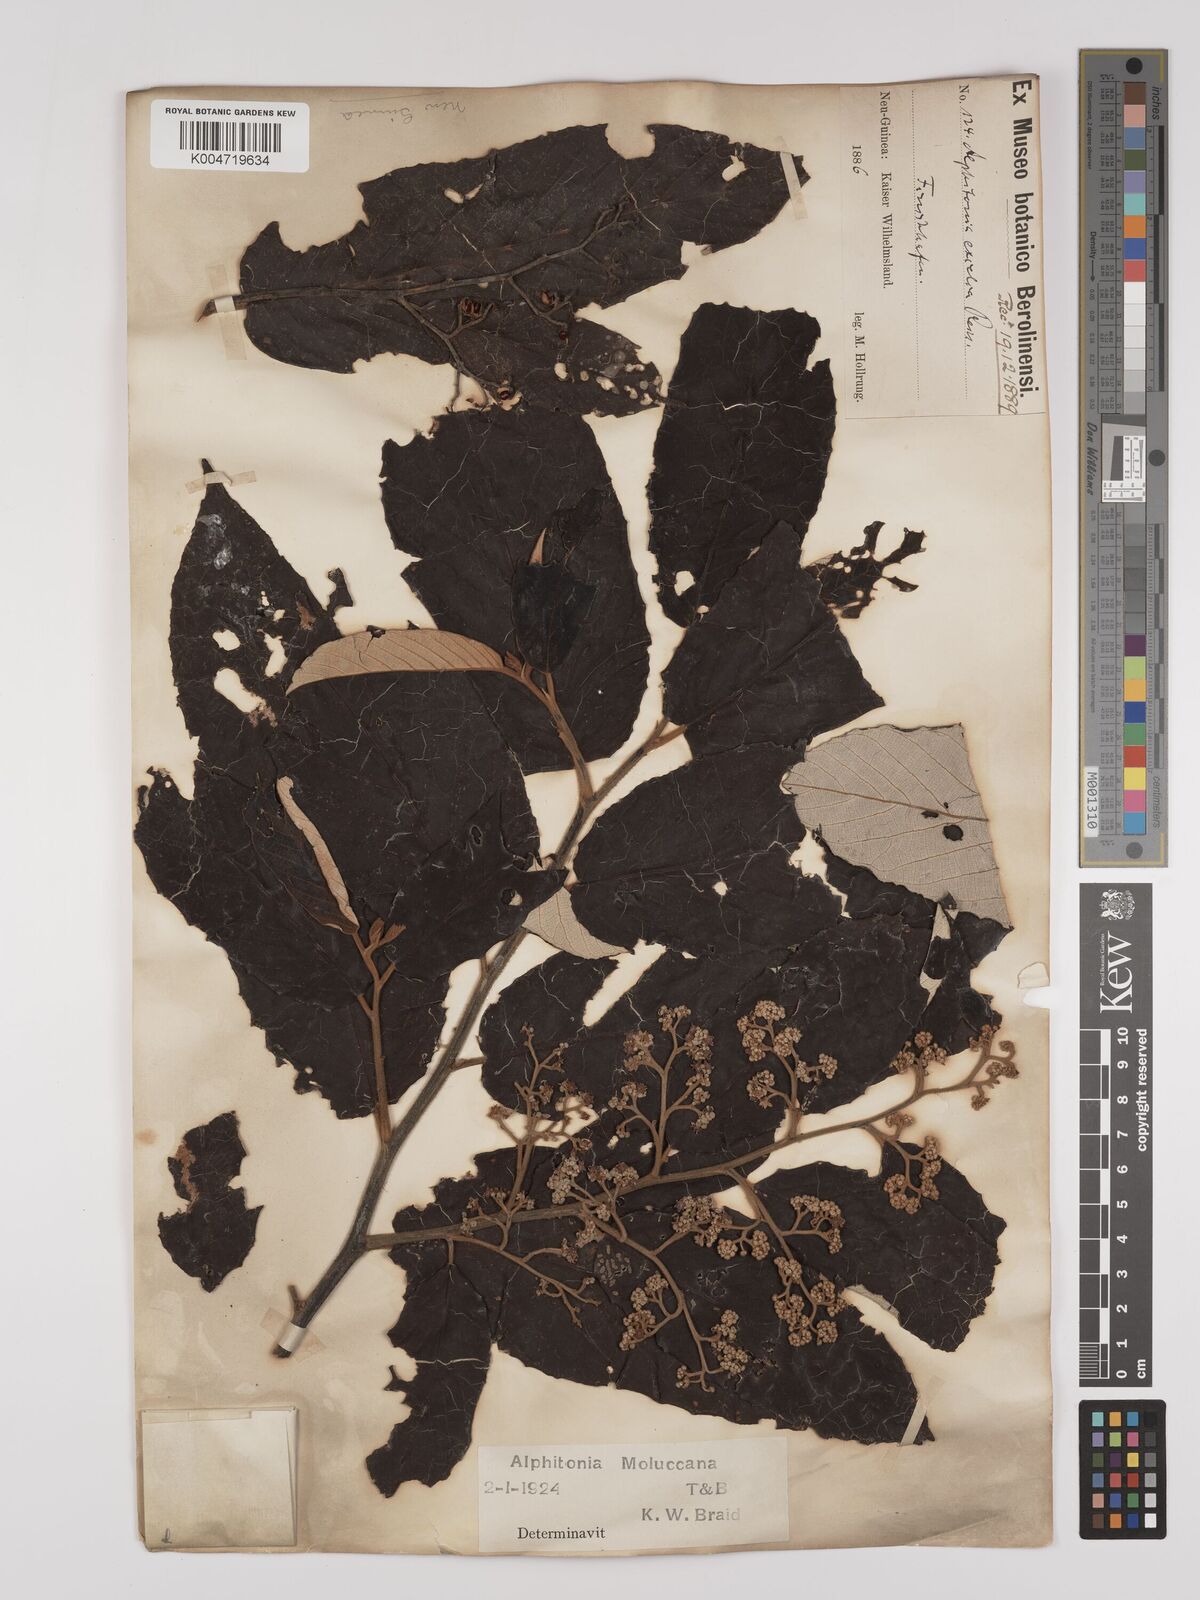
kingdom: Plantae
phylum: Tracheophyta
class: Magnoliopsida
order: Rosales
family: Rhamnaceae
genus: Alphitonia
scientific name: Alphitonia incana
